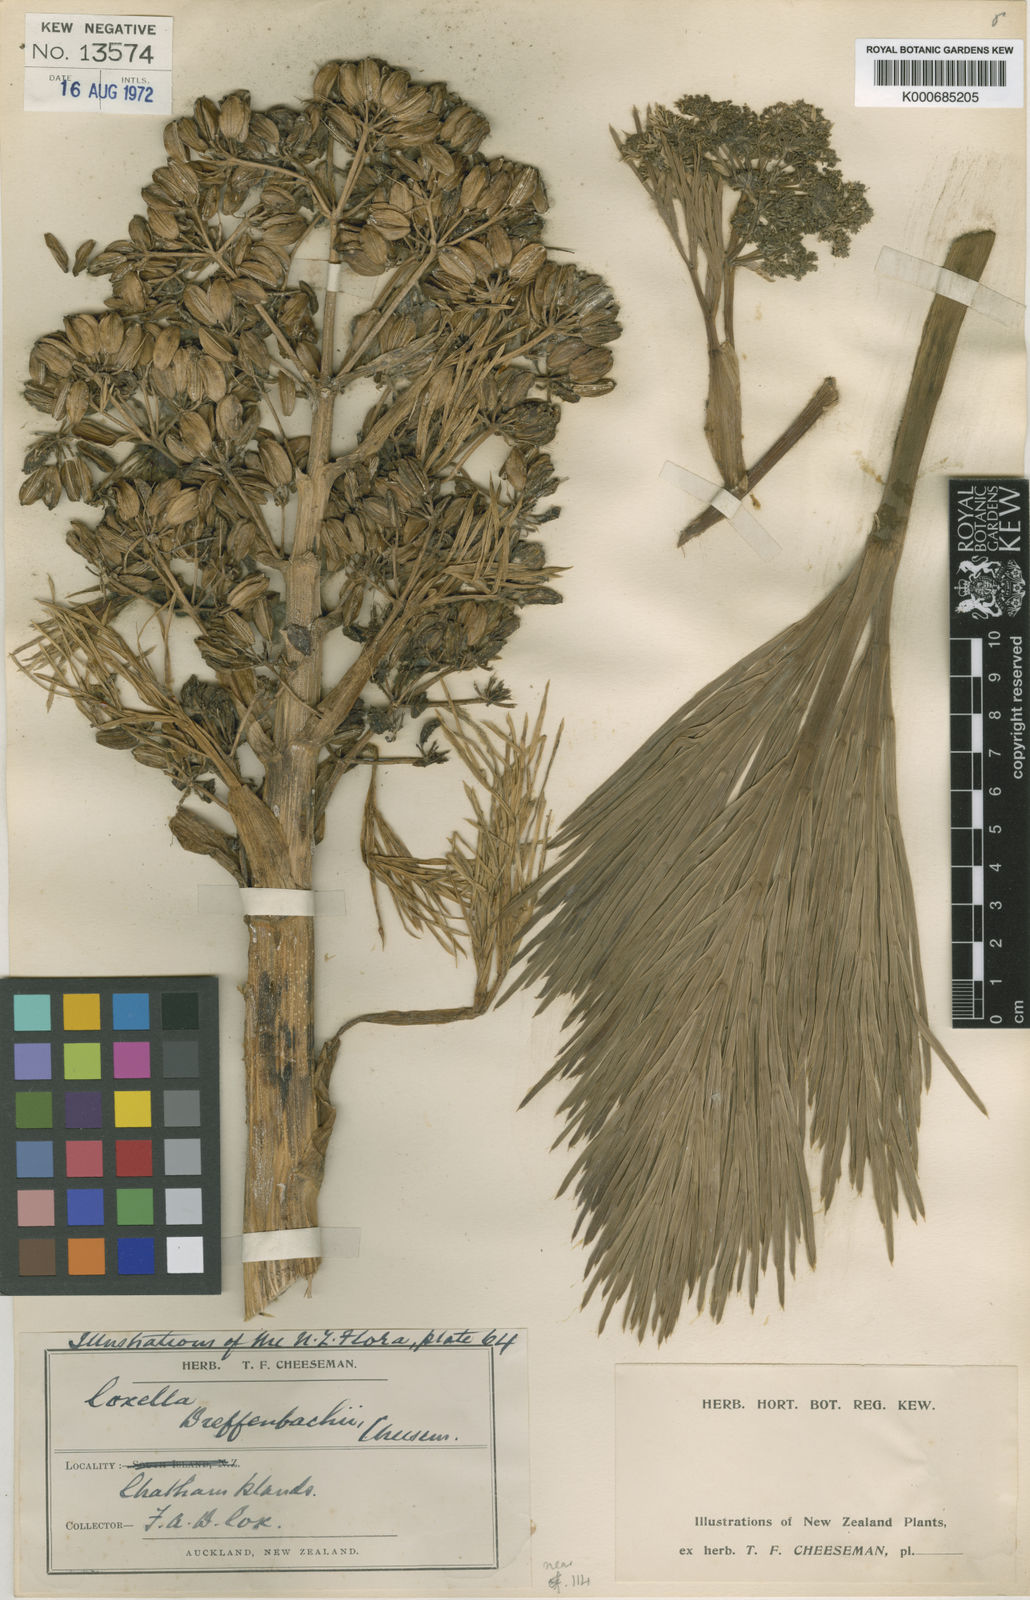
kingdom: Plantae
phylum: Tracheophyta
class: Magnoliopsida
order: Apiales
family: Apiaceae
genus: Aciphylla
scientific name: Aciphylla dieffenbachii
